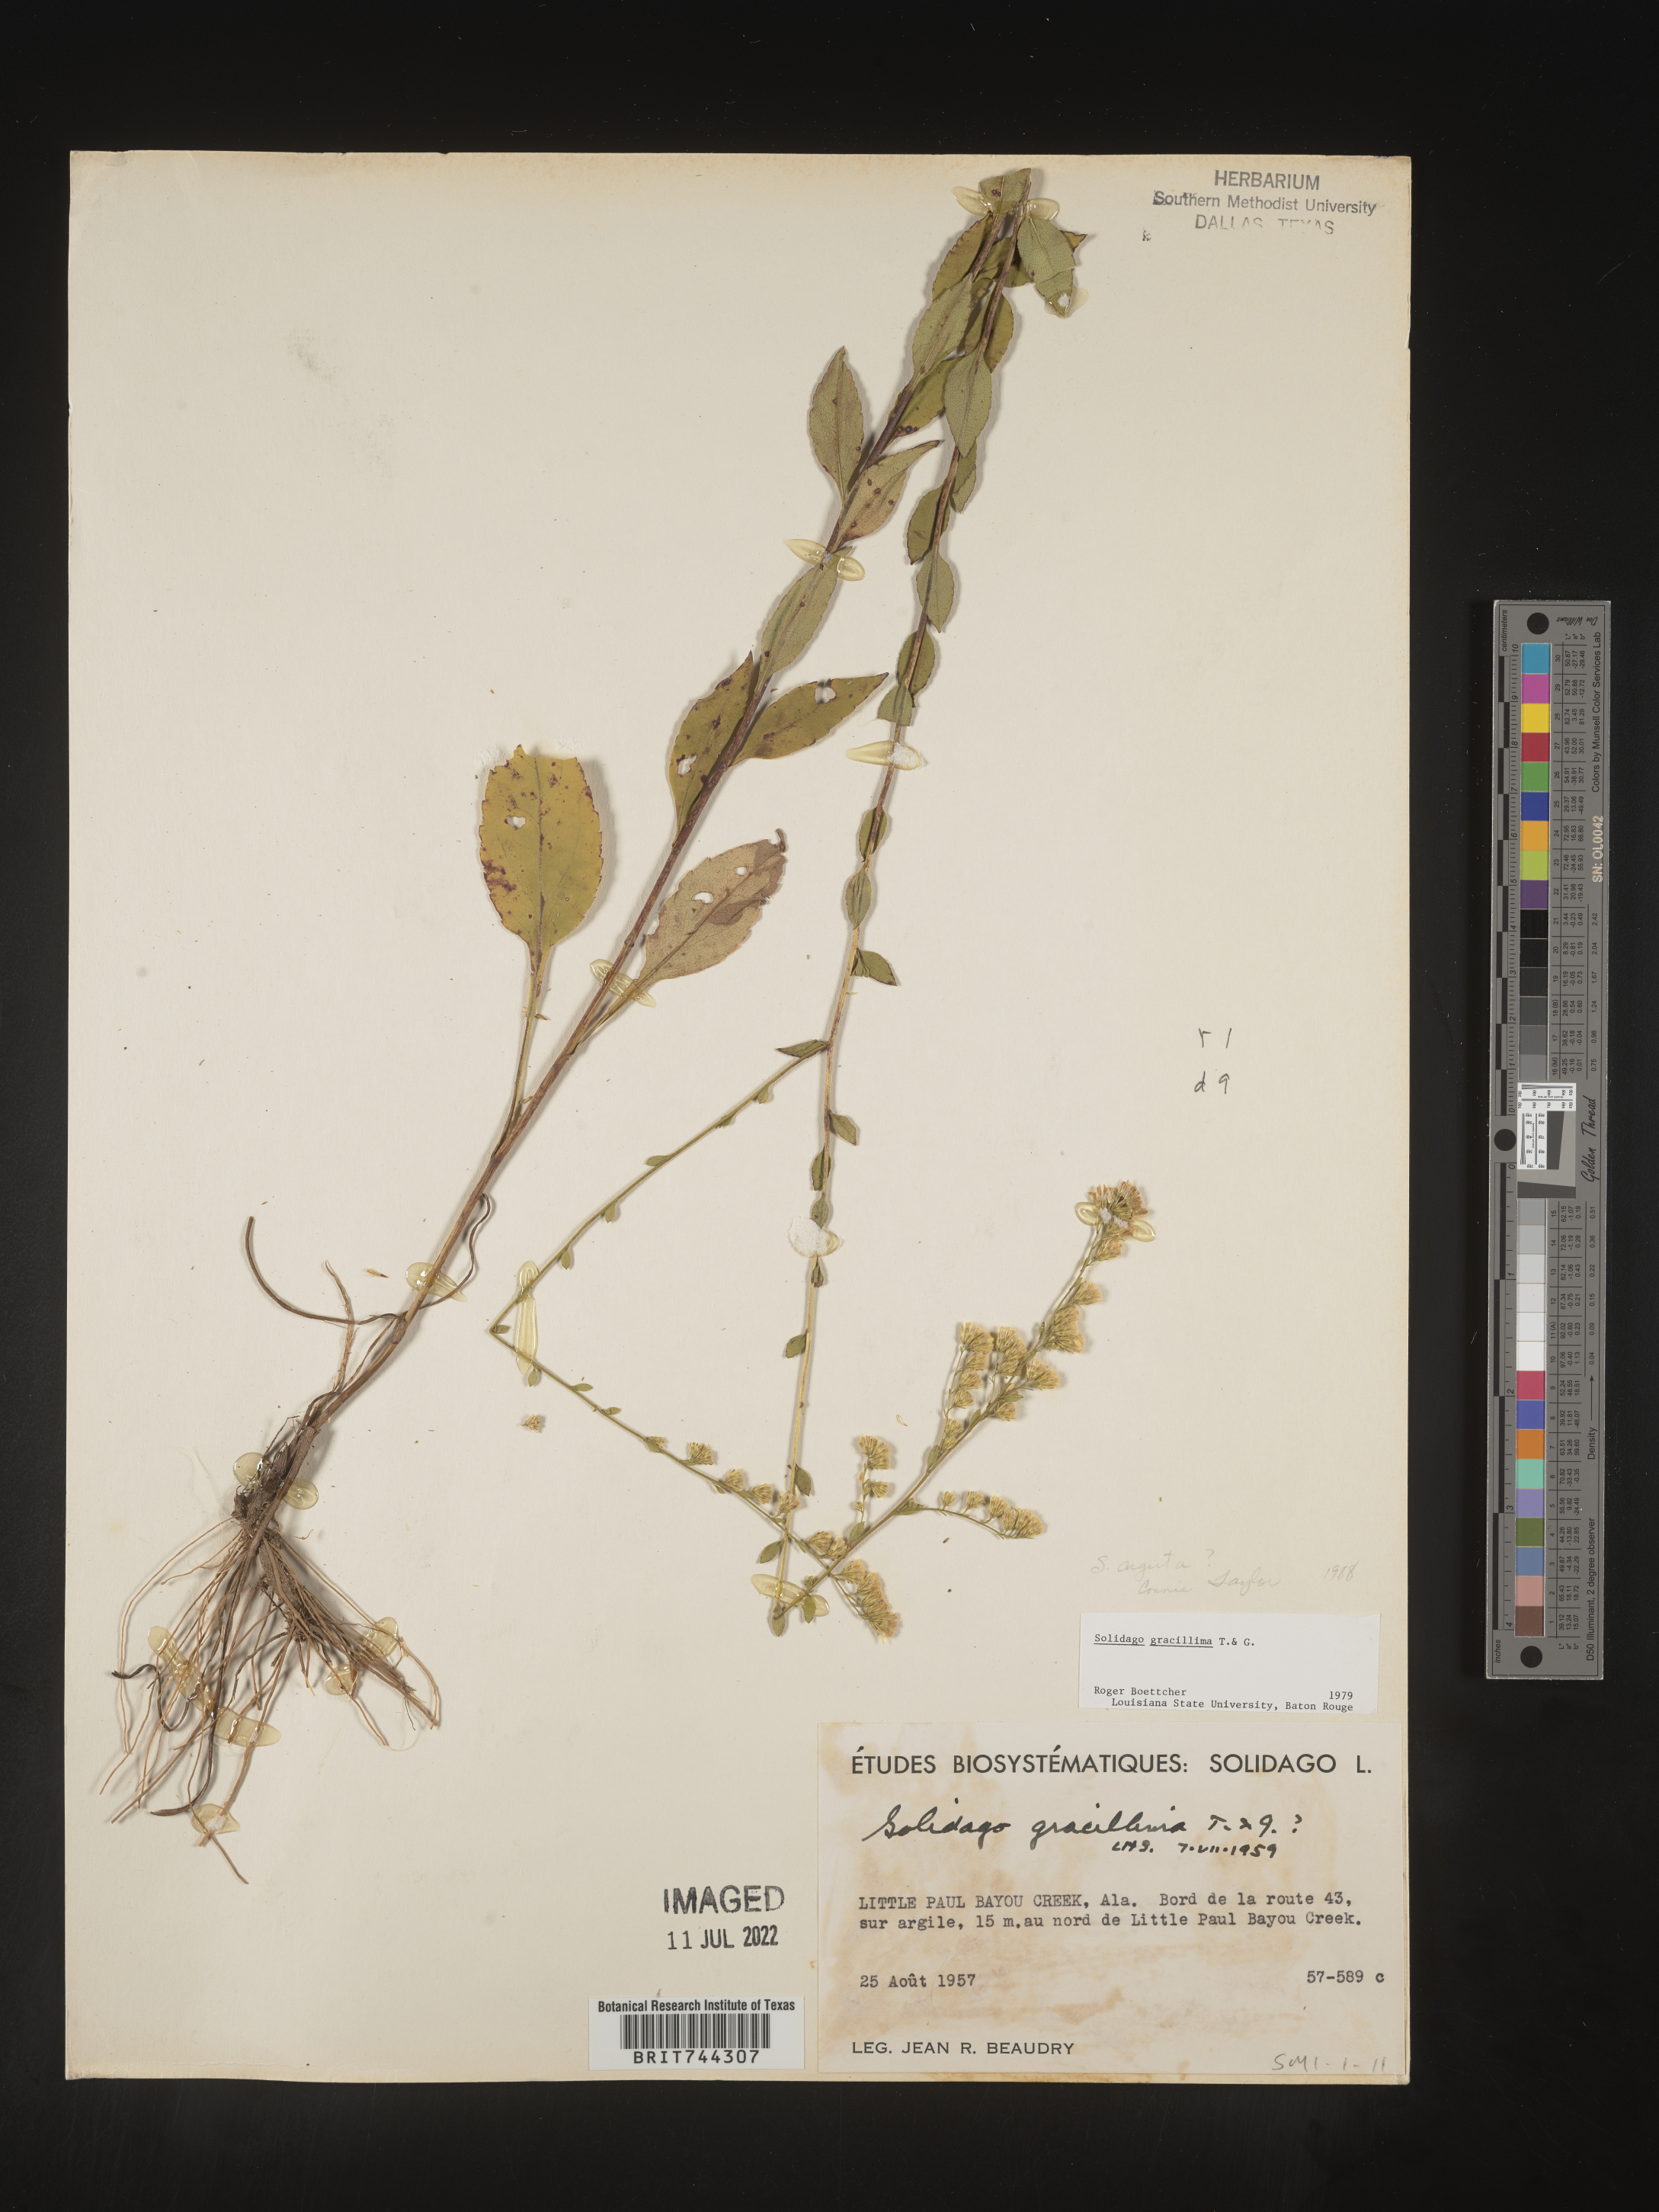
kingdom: Plantae
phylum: Tracheophyta
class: Magnoliopsida
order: Asterales
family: Asteraceae
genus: Solidago
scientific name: Solidago arguta
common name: Atlantic goldenrod
